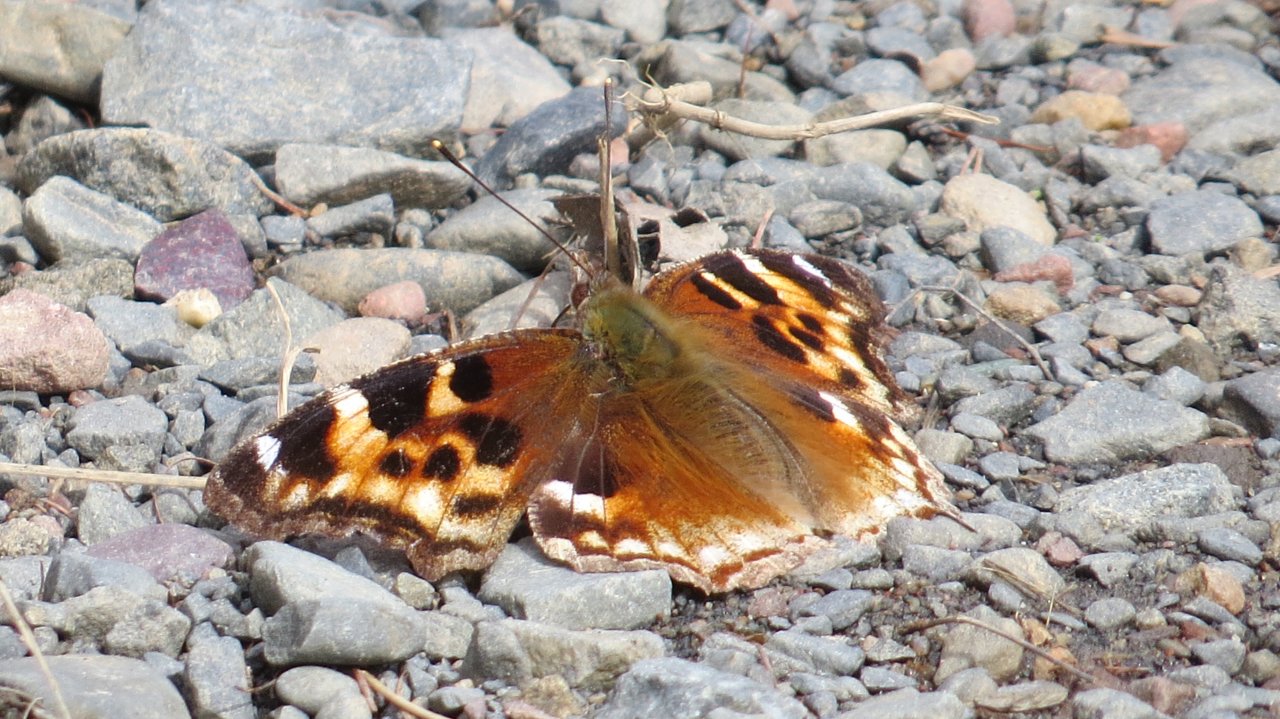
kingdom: Animalia
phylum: Arthropoda
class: Insecta
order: Lepidoptera
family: Nymphalidae
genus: Polygonia
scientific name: Polygonia vaualbum
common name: Compton Tortoiseshell
